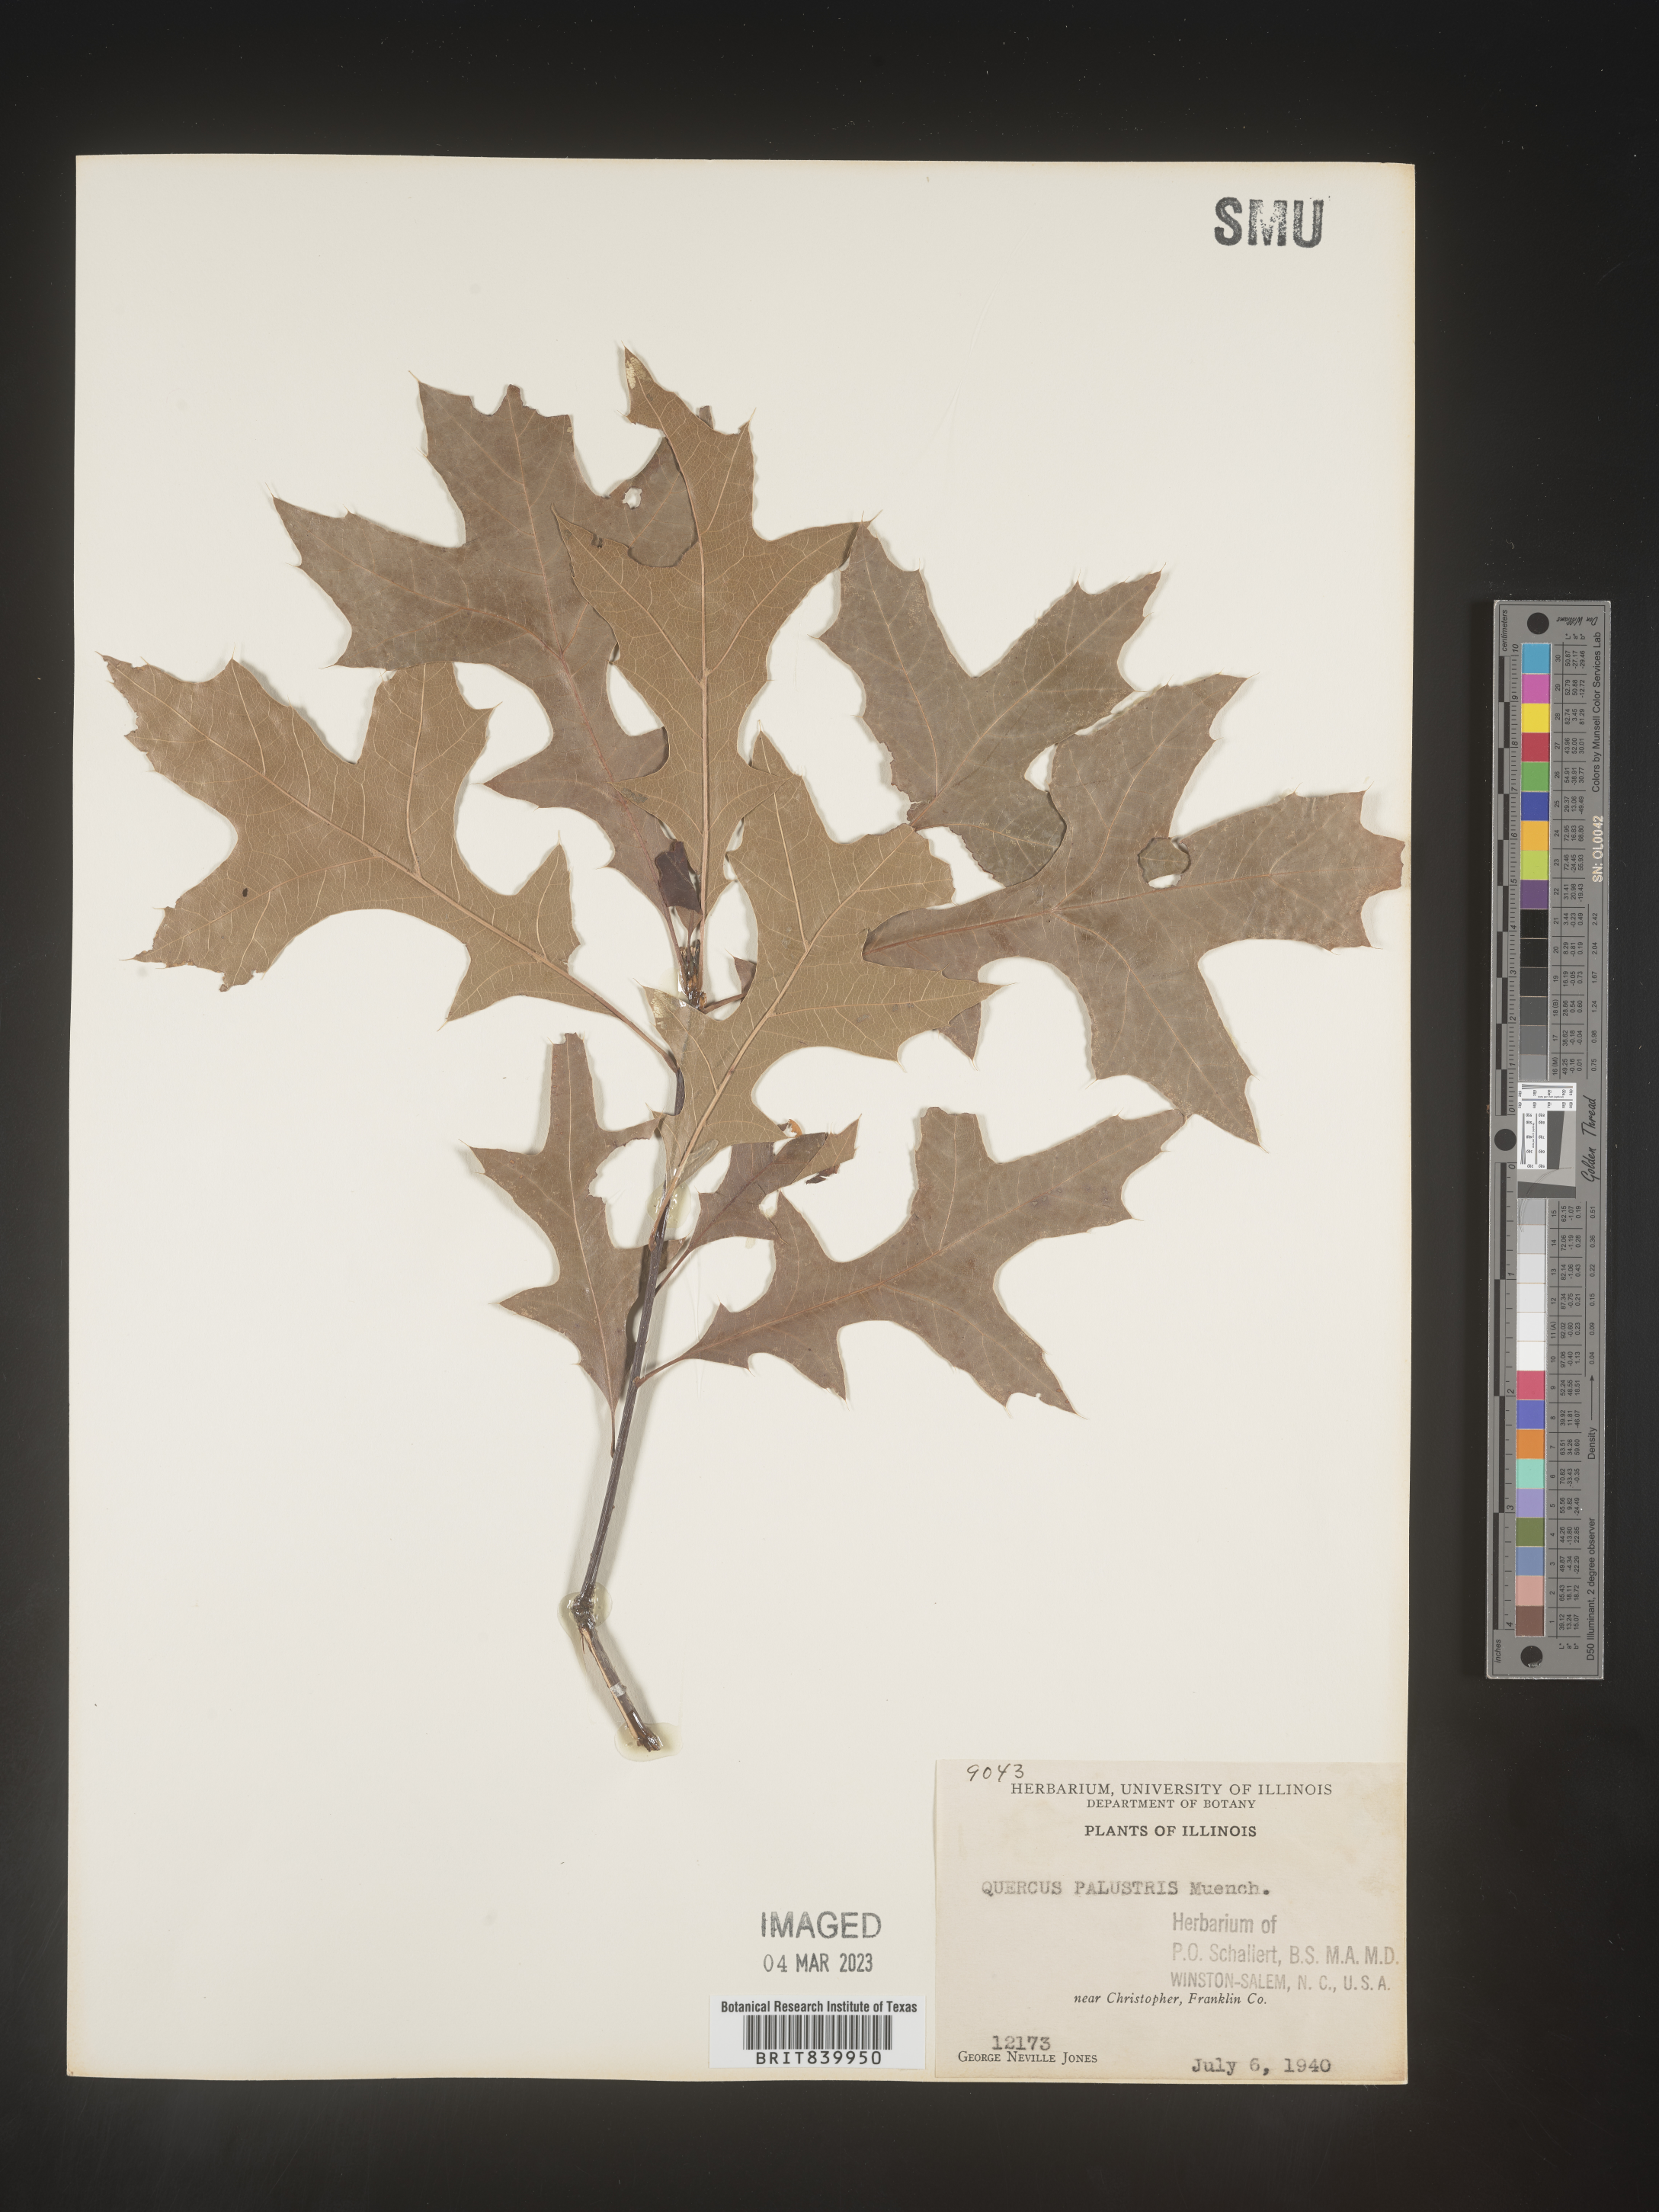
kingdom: Plantae
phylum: Tracheophyta
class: Magnoliopsida
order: Fagales
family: Fagaceae
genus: Quercus
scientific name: Quercus palustris
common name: Pin oak
